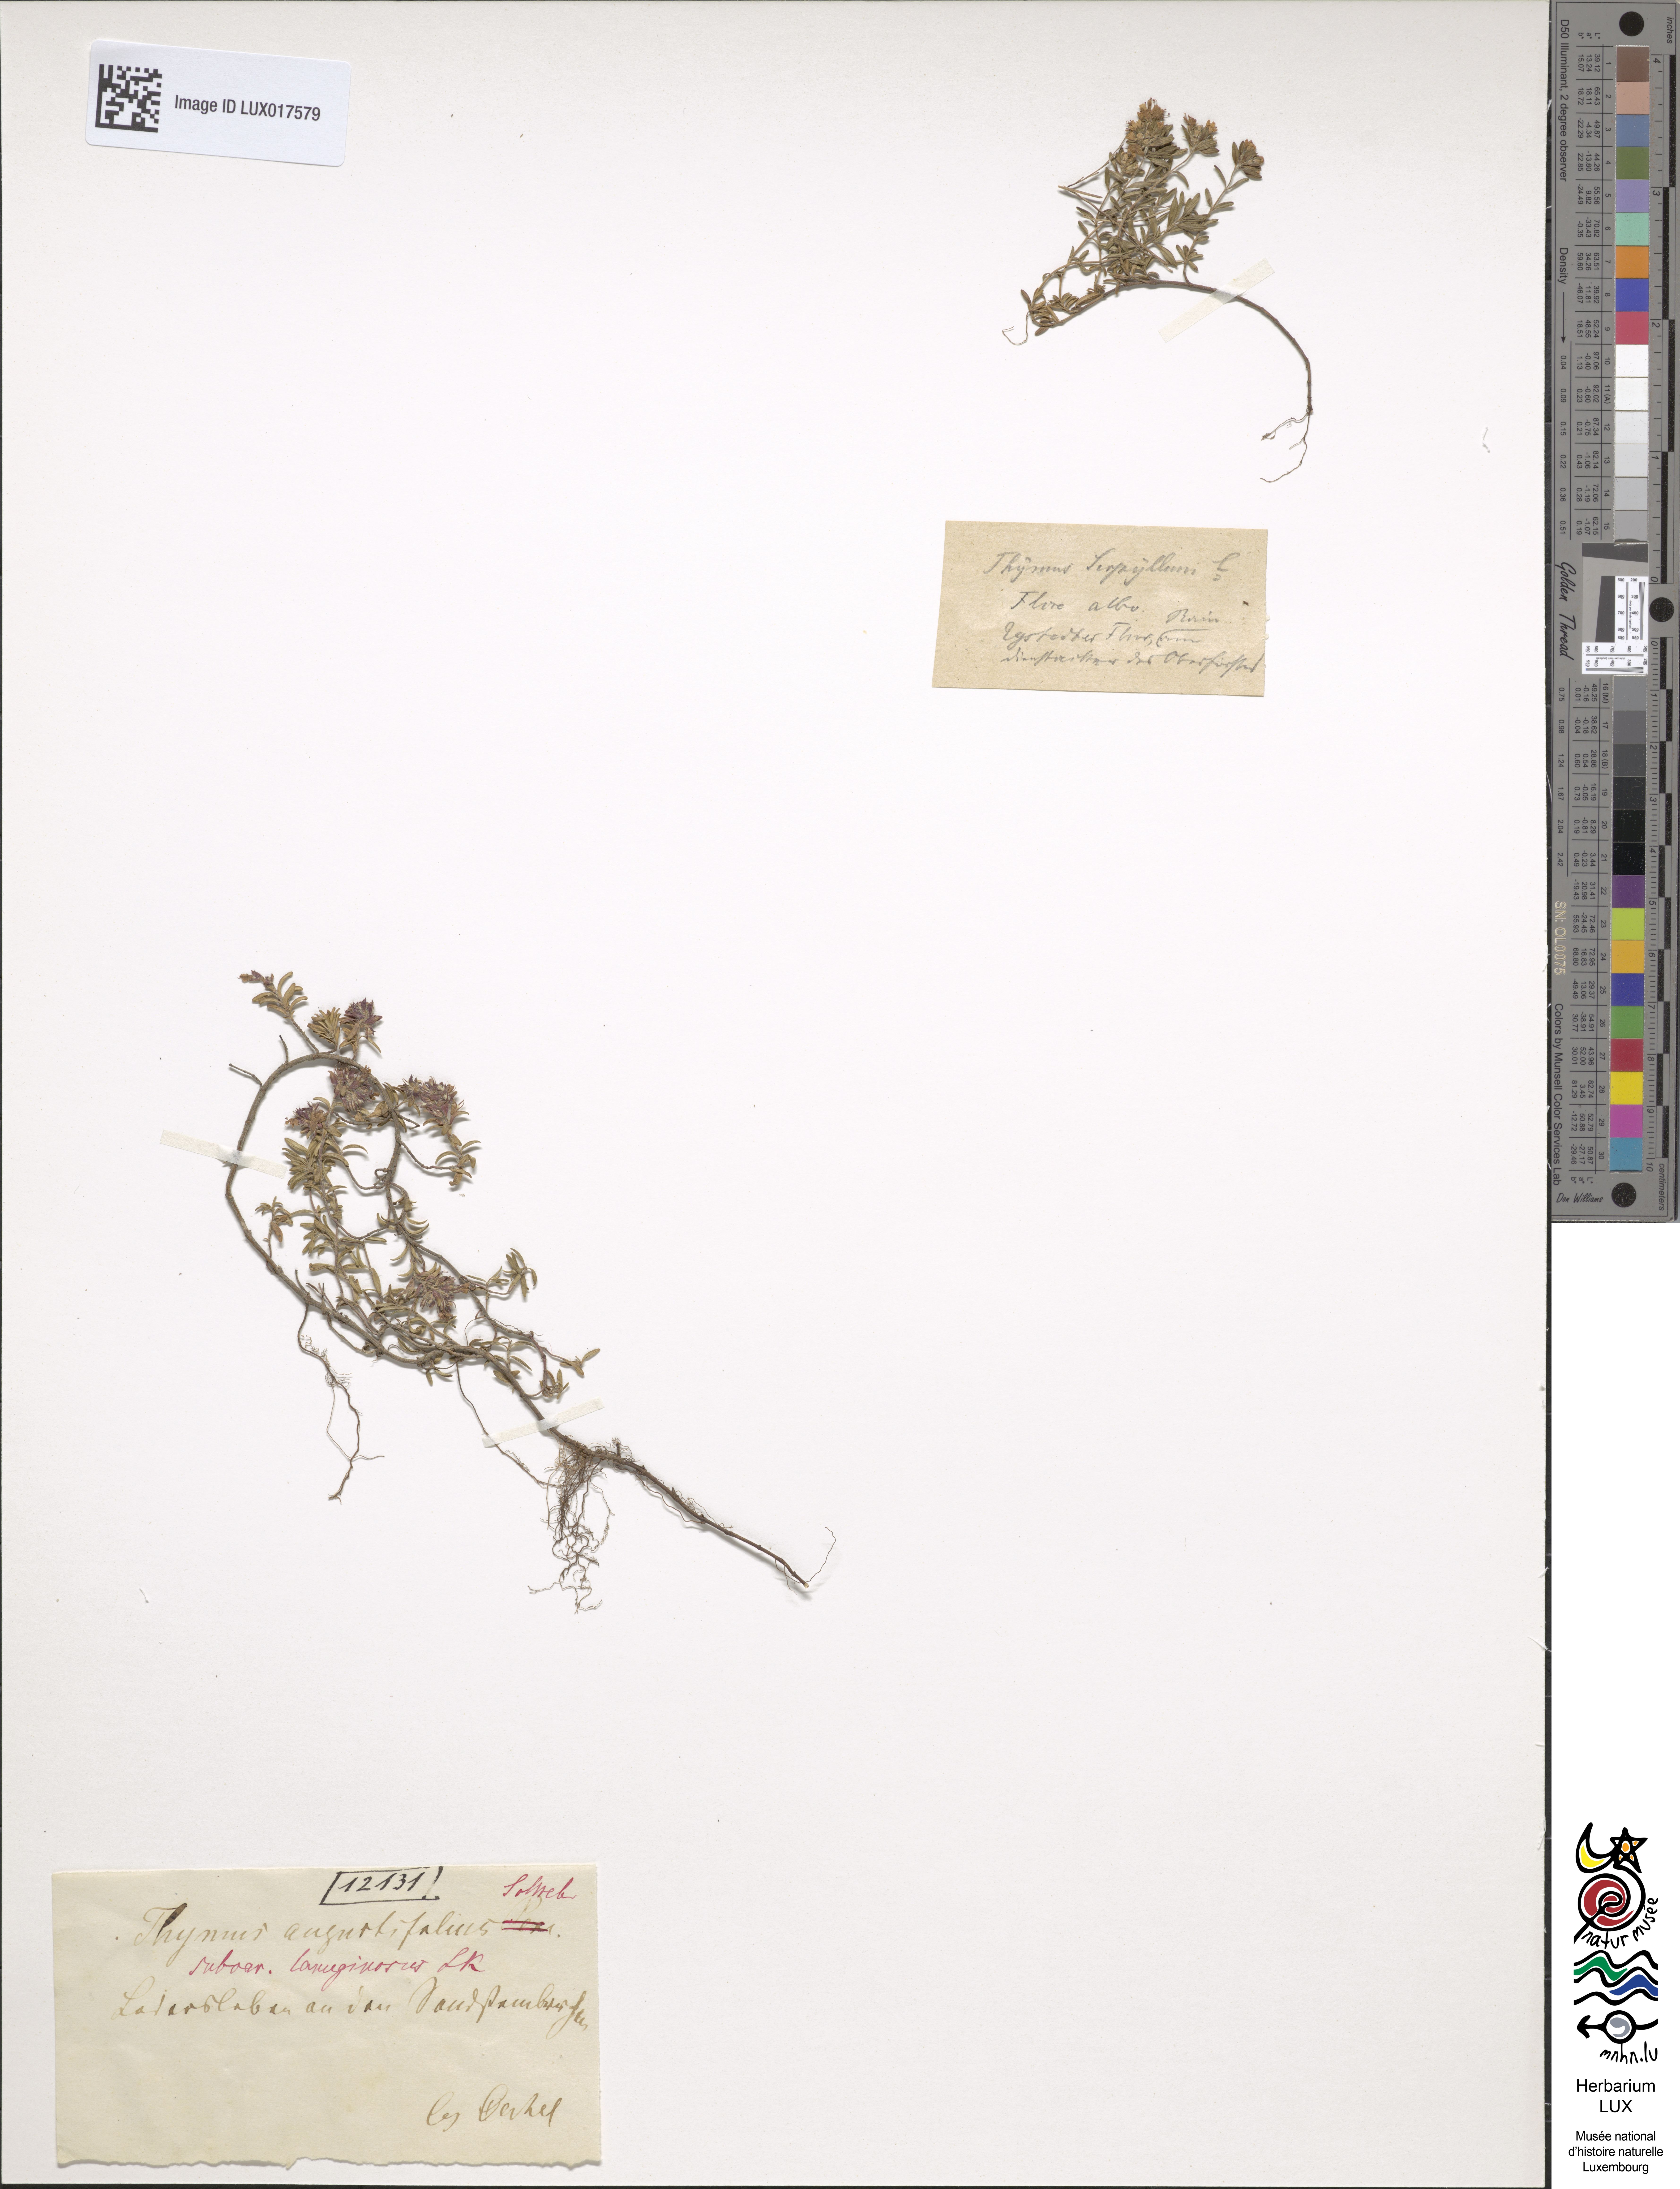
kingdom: Plantae
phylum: Tracheophyta
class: Magnoliopsida
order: Lamiales
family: Lamiaceae
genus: Thymus
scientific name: Thymus oenipontanus
